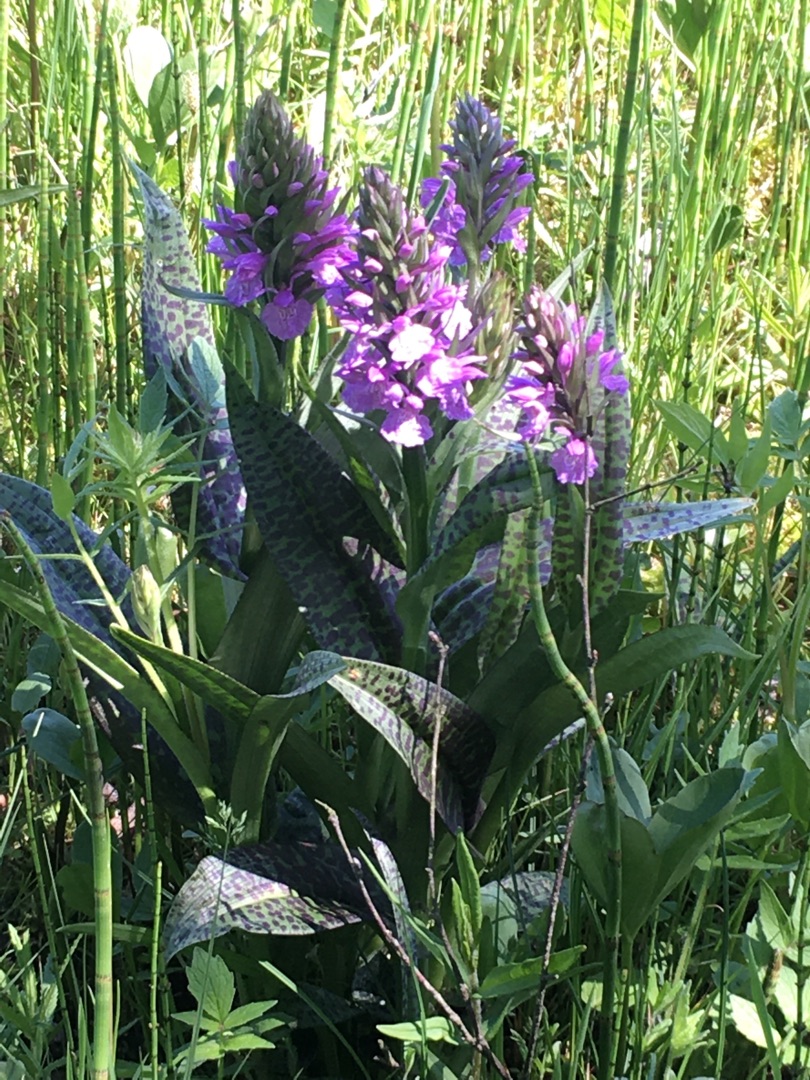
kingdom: Plantae
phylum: Tracheophyta
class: Liliopsida
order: Asparagales
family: Orchidaceae
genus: Dactylorhiza
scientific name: Dactylorhiza maculata
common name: Plettet gøgeurt
